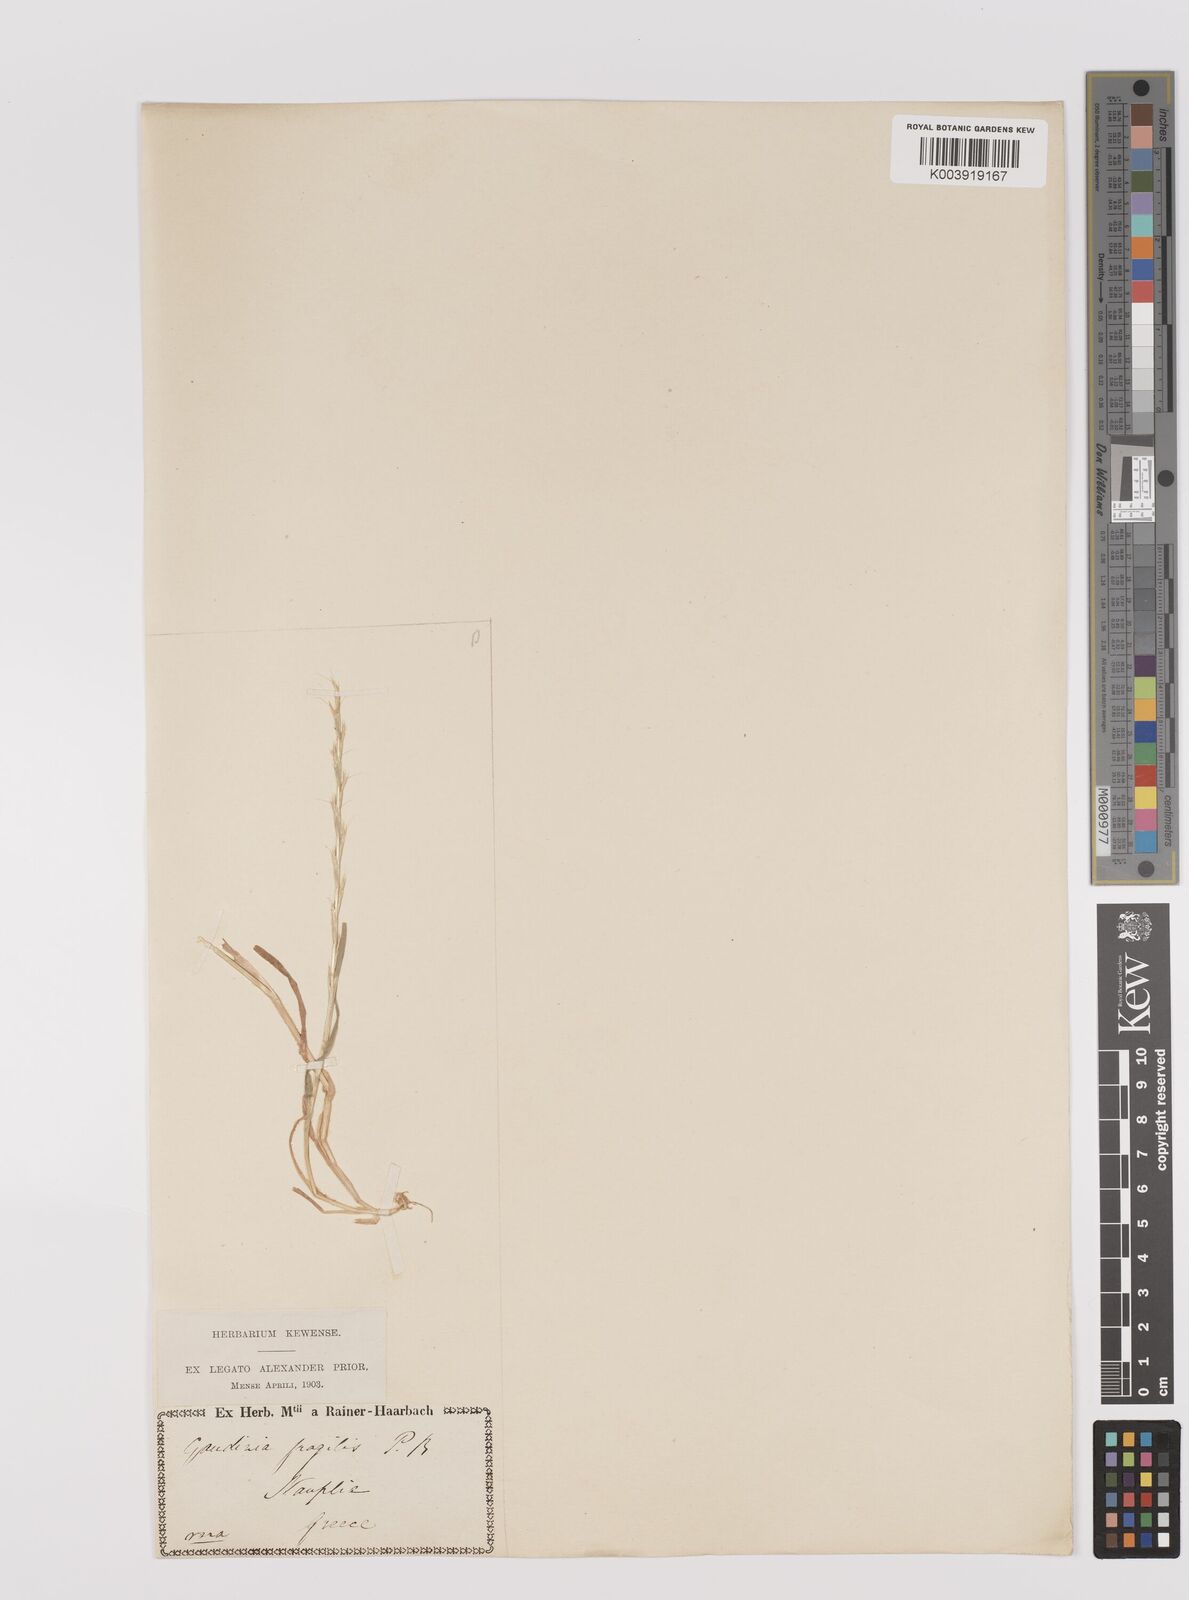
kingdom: Plantae
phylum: Tracheophyta
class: Liliopsida
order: Poales
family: Poaceae
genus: Gaudinia
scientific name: Gaudinia fragilis
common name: French oat-grass
